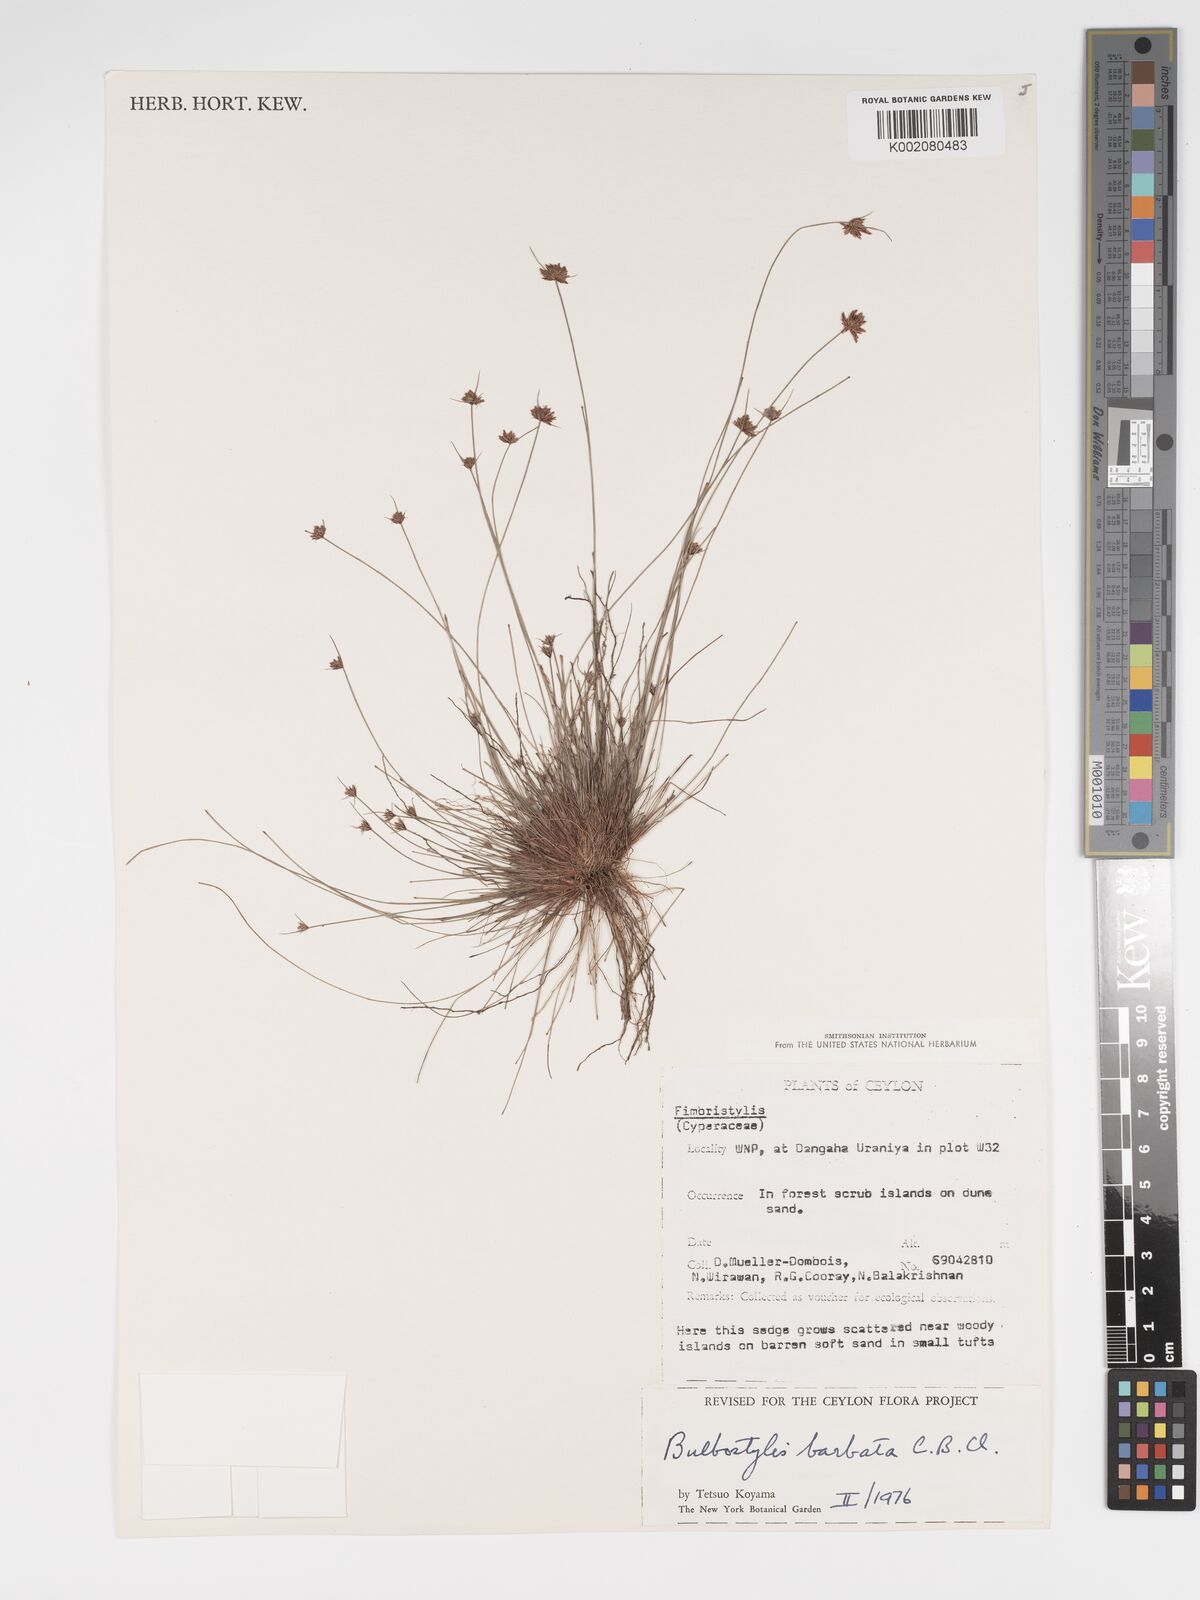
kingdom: Plantae
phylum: Tracheophyta
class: Liliopsida
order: Poales
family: Cyperaceae
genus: Bulbostylis
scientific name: Bulbostylis barbata
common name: Watergrass
